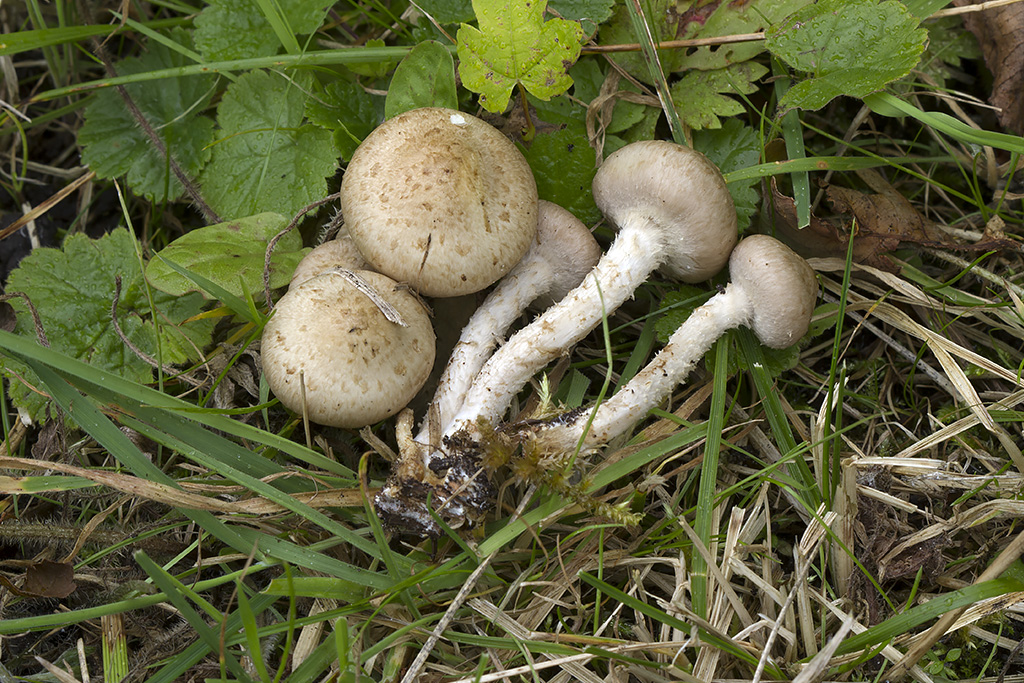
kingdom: Fungi
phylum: Basidiomycota
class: Agaricomycetes
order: Agaricales
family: Strophariaceae
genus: Pholiota
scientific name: Pholiota gummosa
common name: grøngul skælhat
